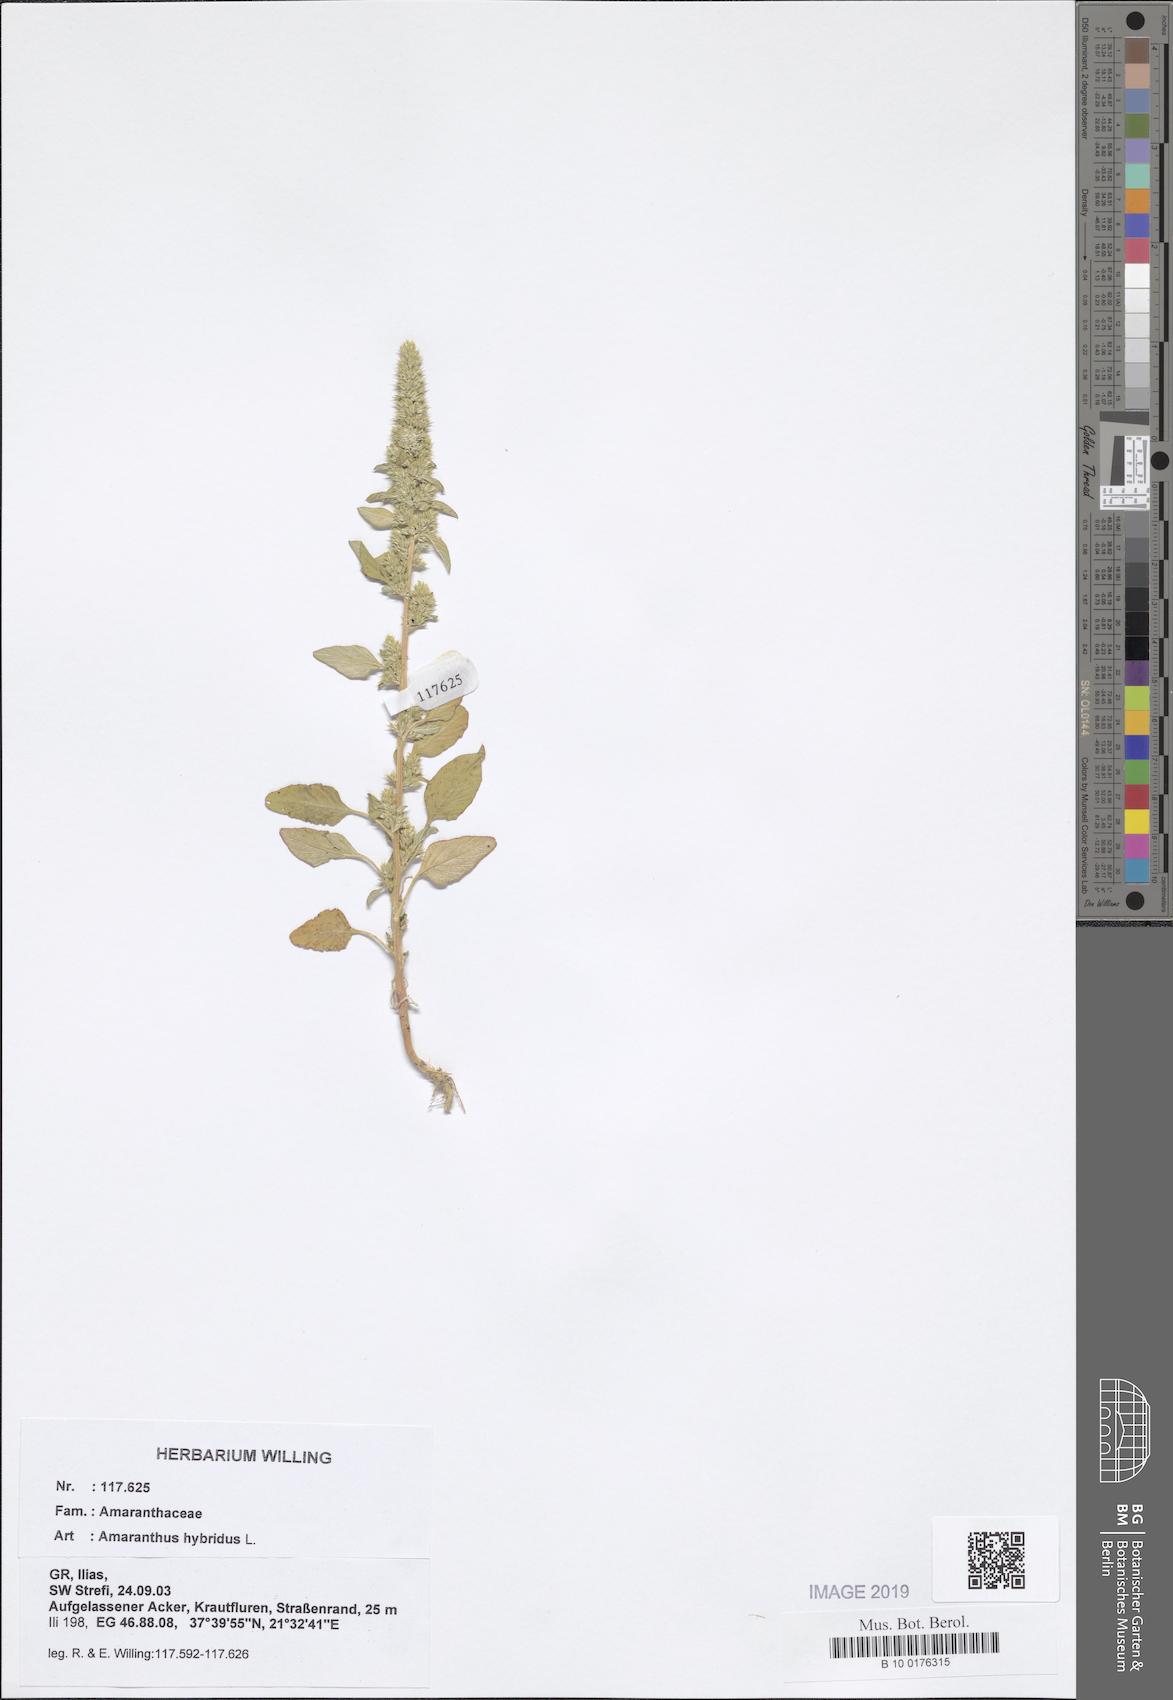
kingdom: Plantae
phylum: Tracheophyta
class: Magnoliopsida
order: Caryophyllales
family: Amaranthaceae
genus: Amaranthus
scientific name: Amaranthus hybridus
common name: Green amaranth
